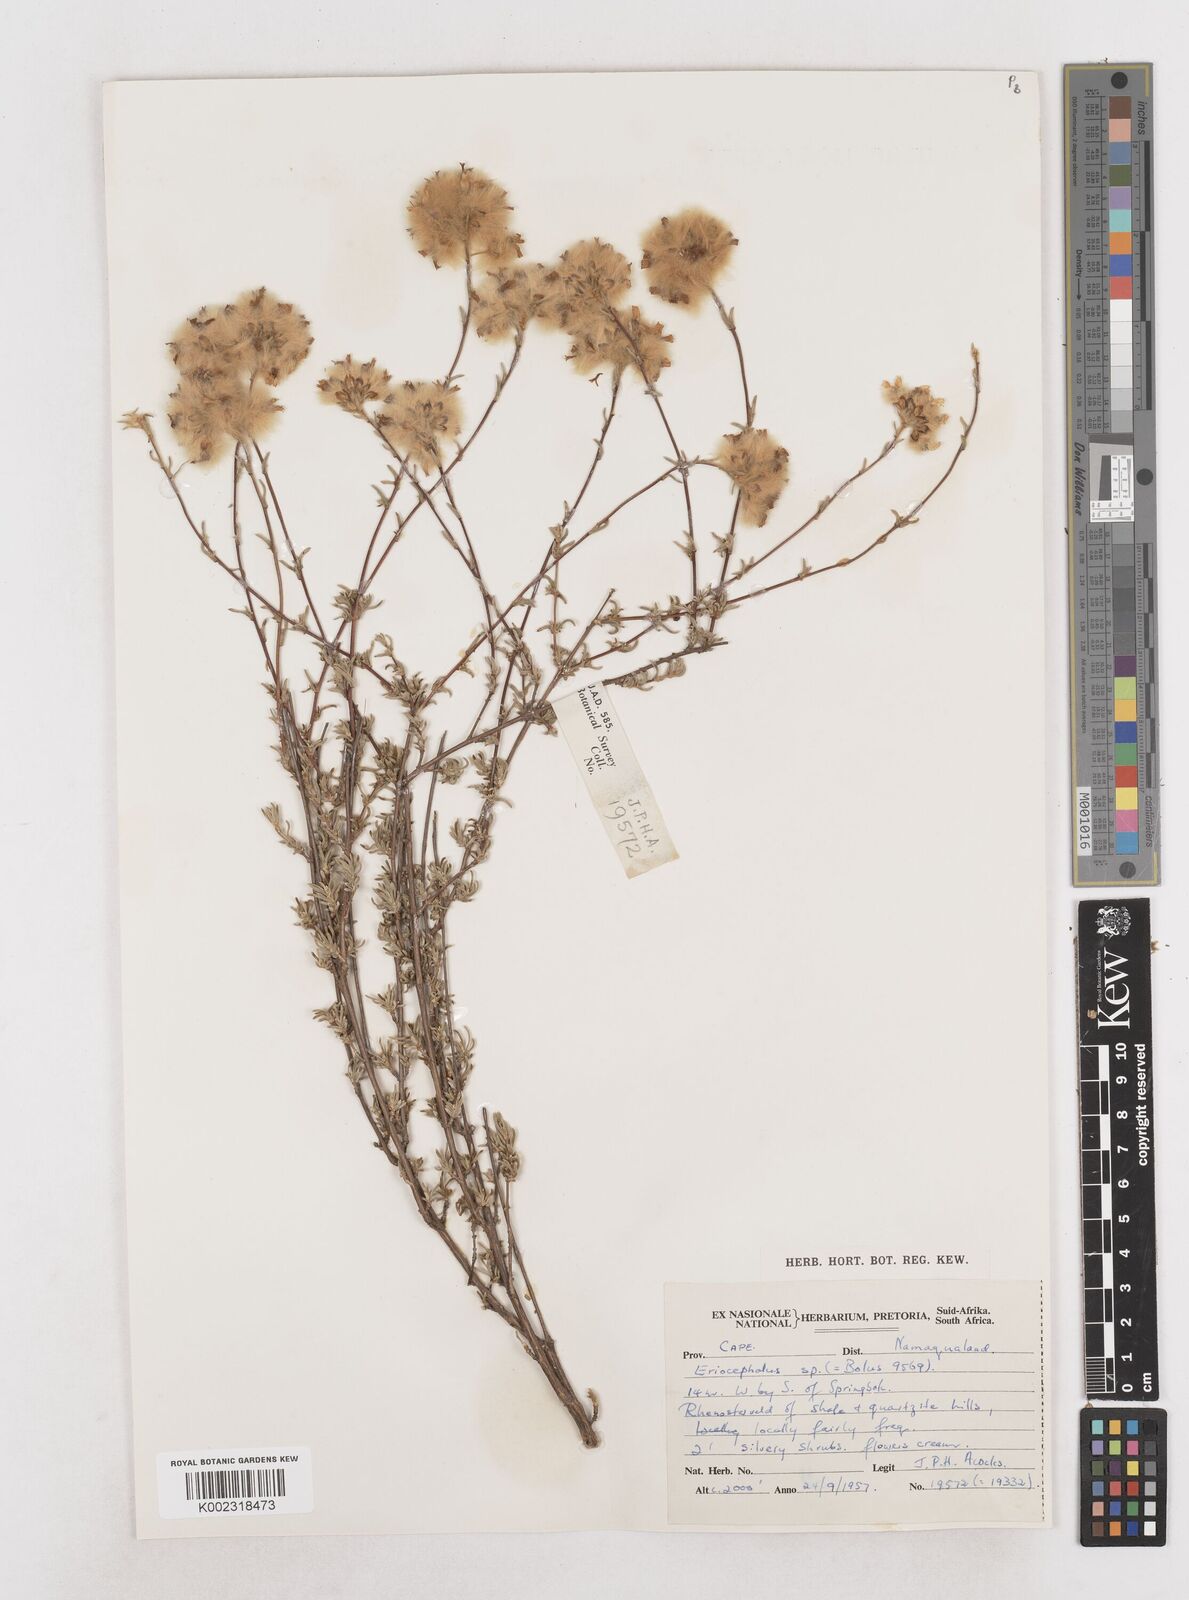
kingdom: Plantae
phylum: Tracheophyta
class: Magnoliopsida
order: Asterales
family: Asteraceae
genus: Eriocephalus
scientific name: Eriocephalus
